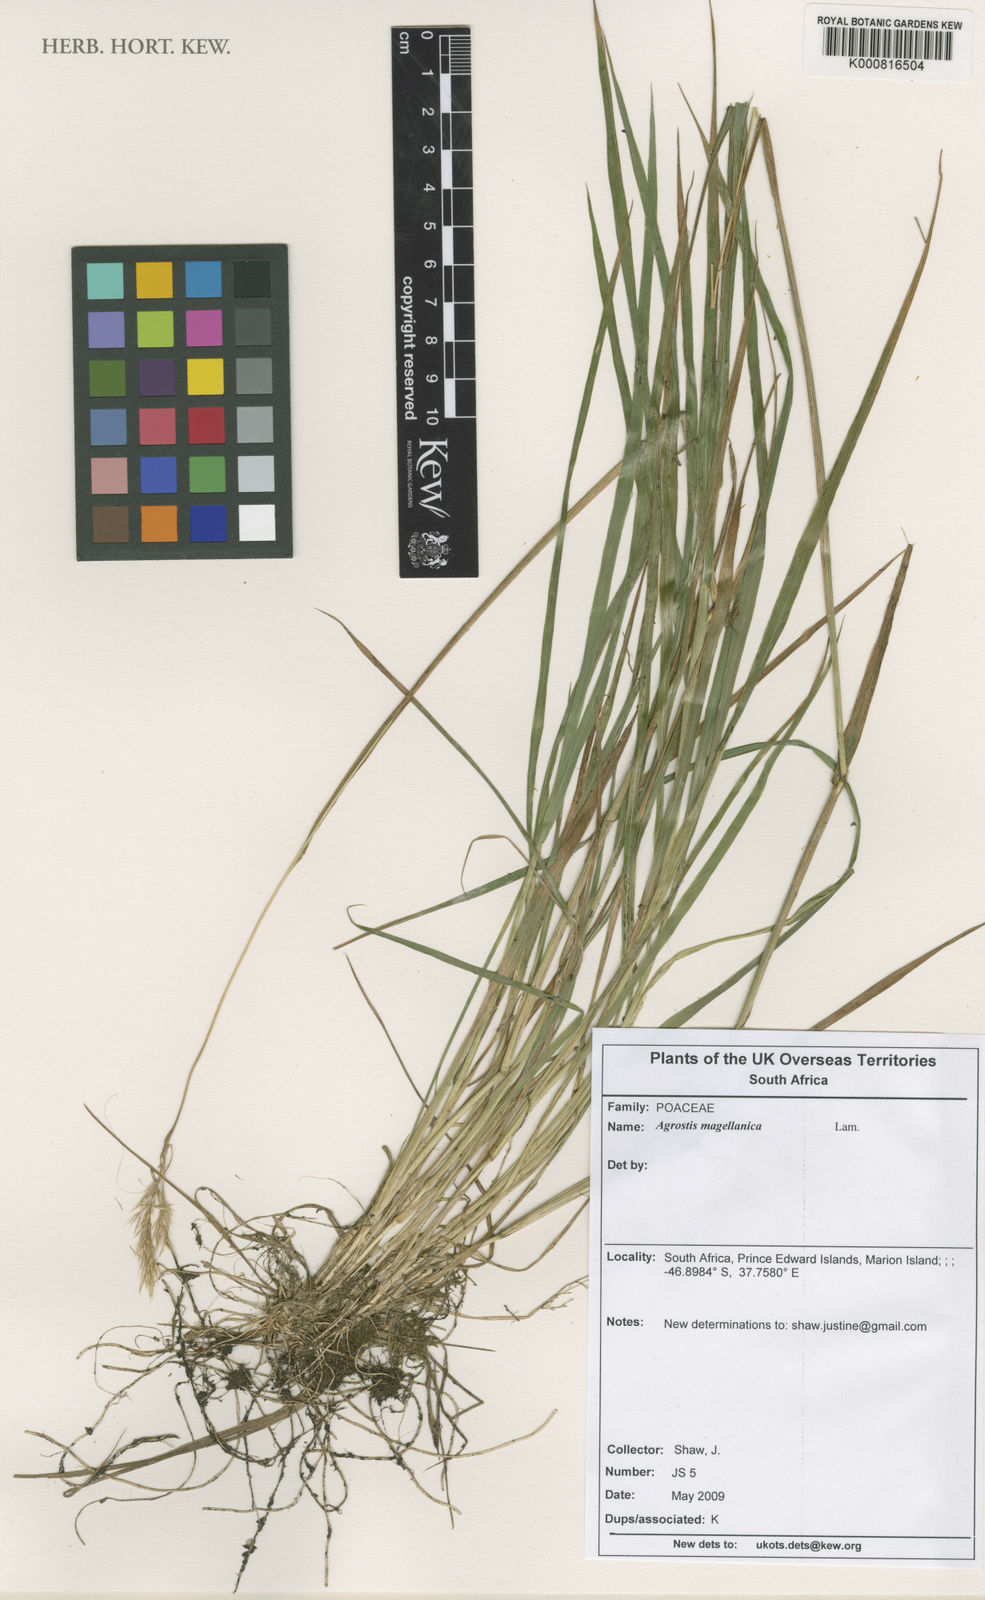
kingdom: Plantae
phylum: Tracheophyta
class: Liliopsida
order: Poales
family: Poaceae
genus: Polypogon
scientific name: Polypogon magellanicus
